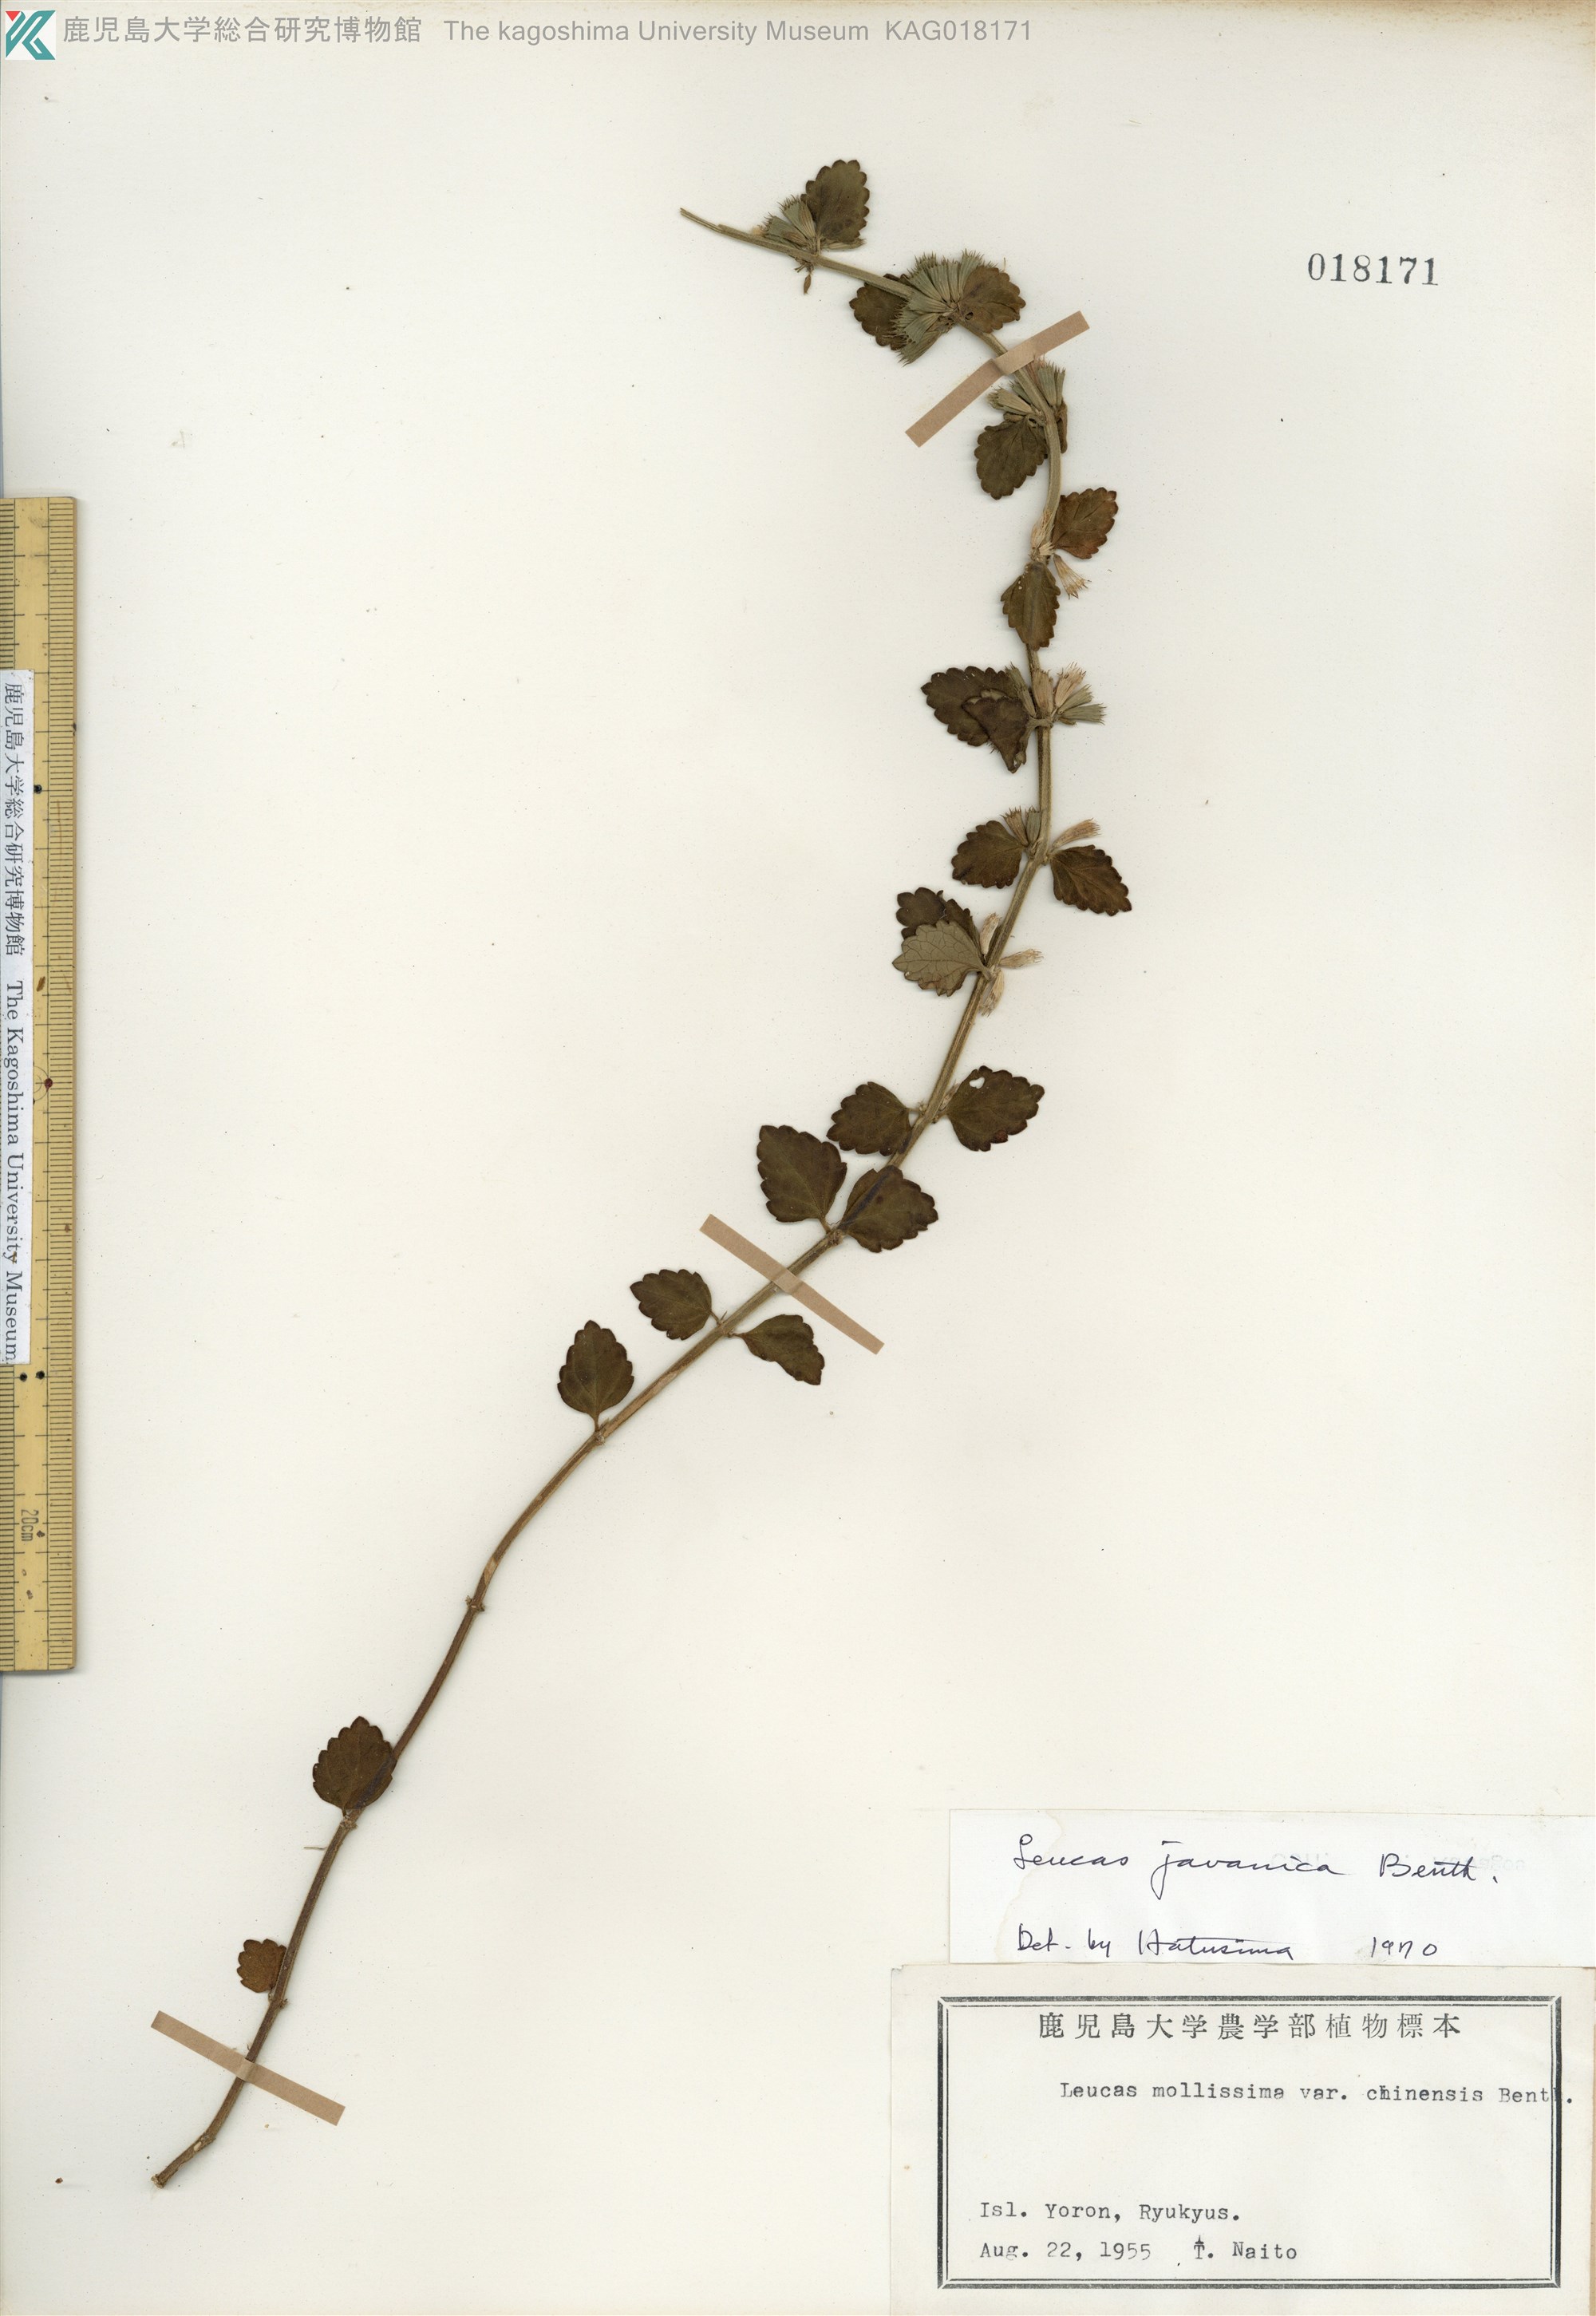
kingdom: Plantae
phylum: Tracheophyta
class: Magnoliopsida
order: Lamiales
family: Lamiaceae
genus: Leucas
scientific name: Leucas chinensis
